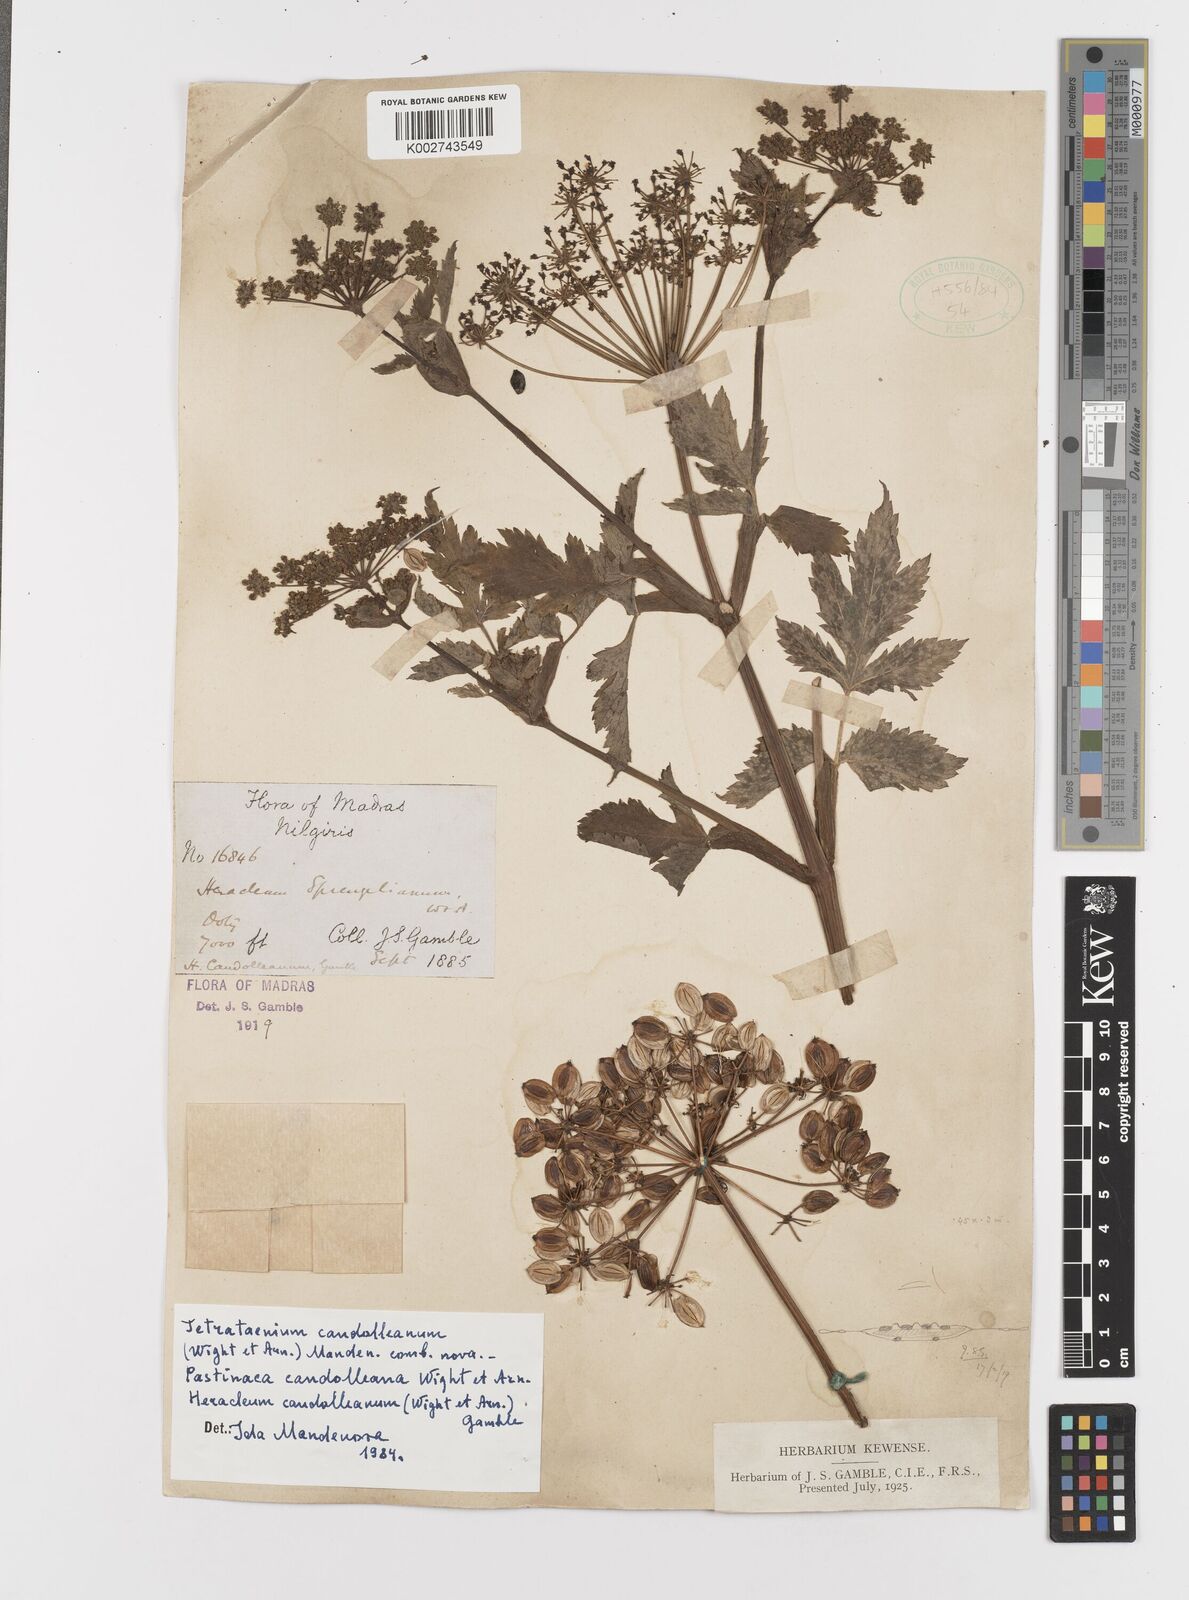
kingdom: Plantae
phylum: Tracheophyta
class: Magnoliopsida
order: Apiales
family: Apiaceae
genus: Tetrataenium
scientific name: Tetrataenium rigens
